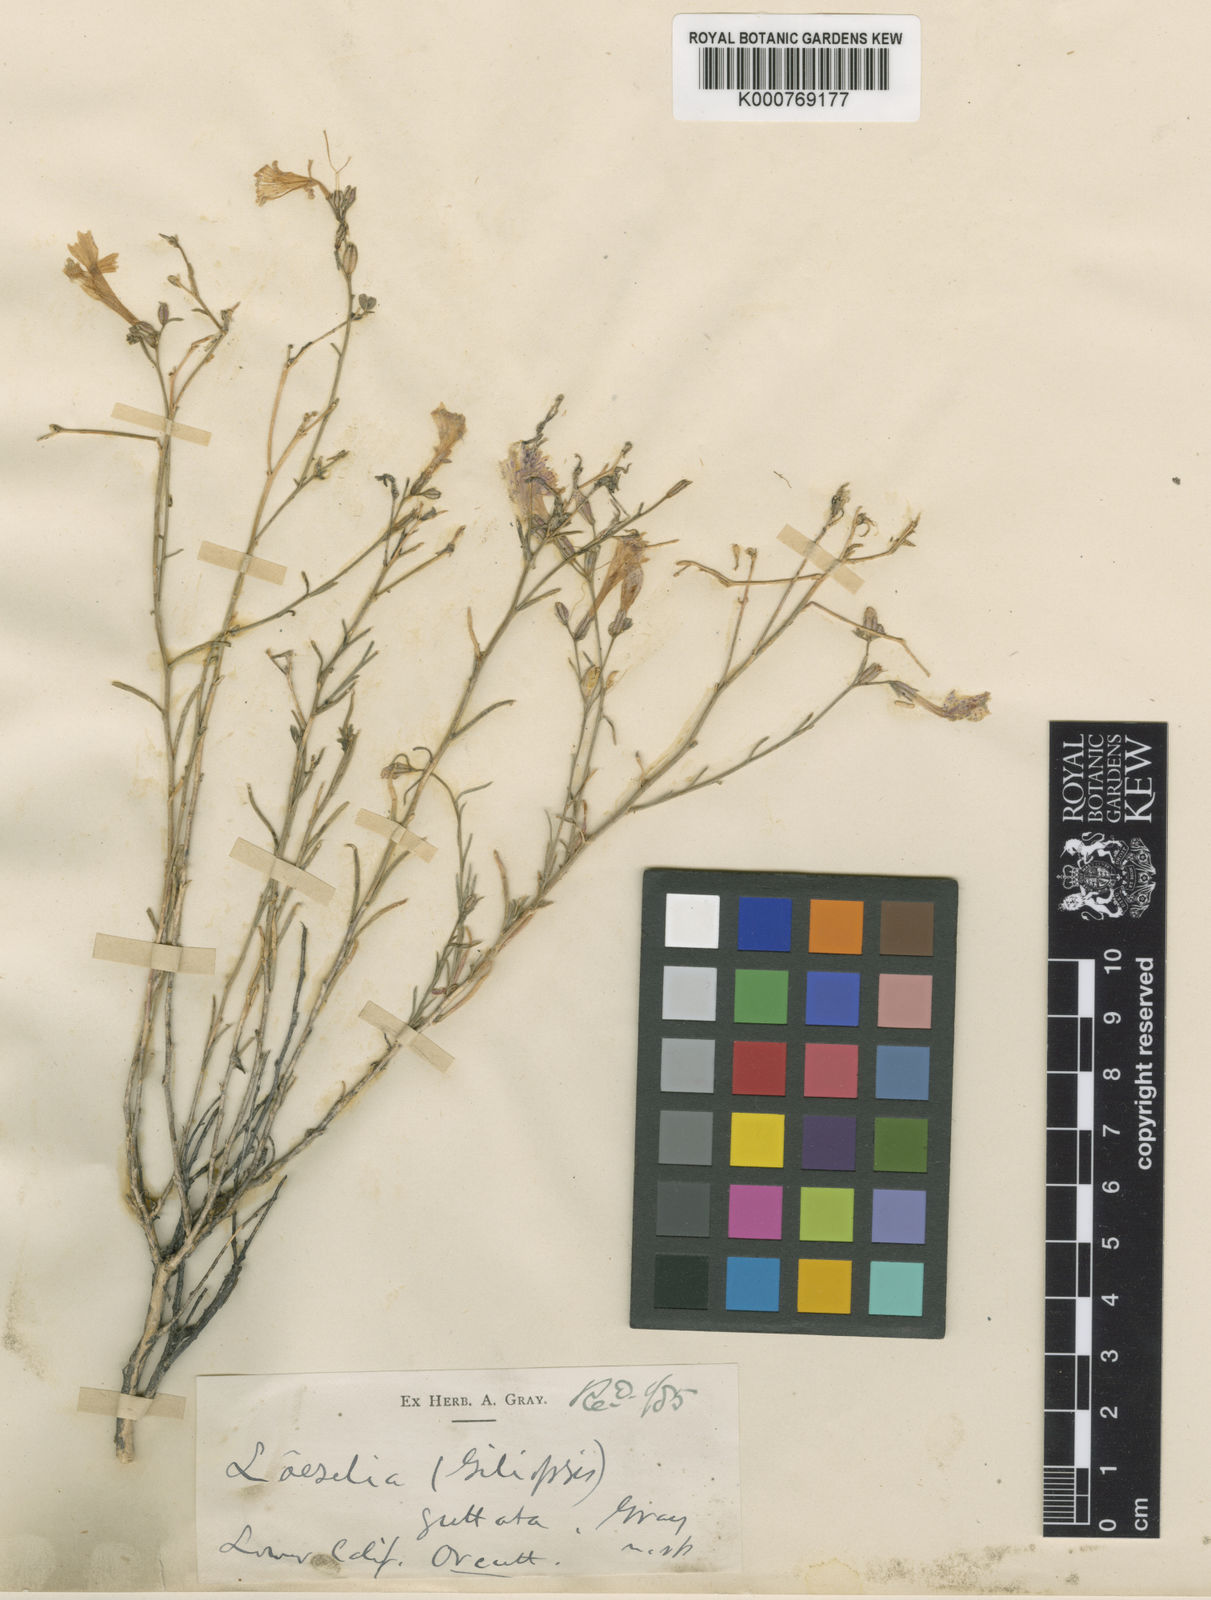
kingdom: Plantae
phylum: Tracheophyta
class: Magnoliopsida
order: Ericales
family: Polemoniaceae
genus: Ipomopsis
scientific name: Ipomopsis guttata
